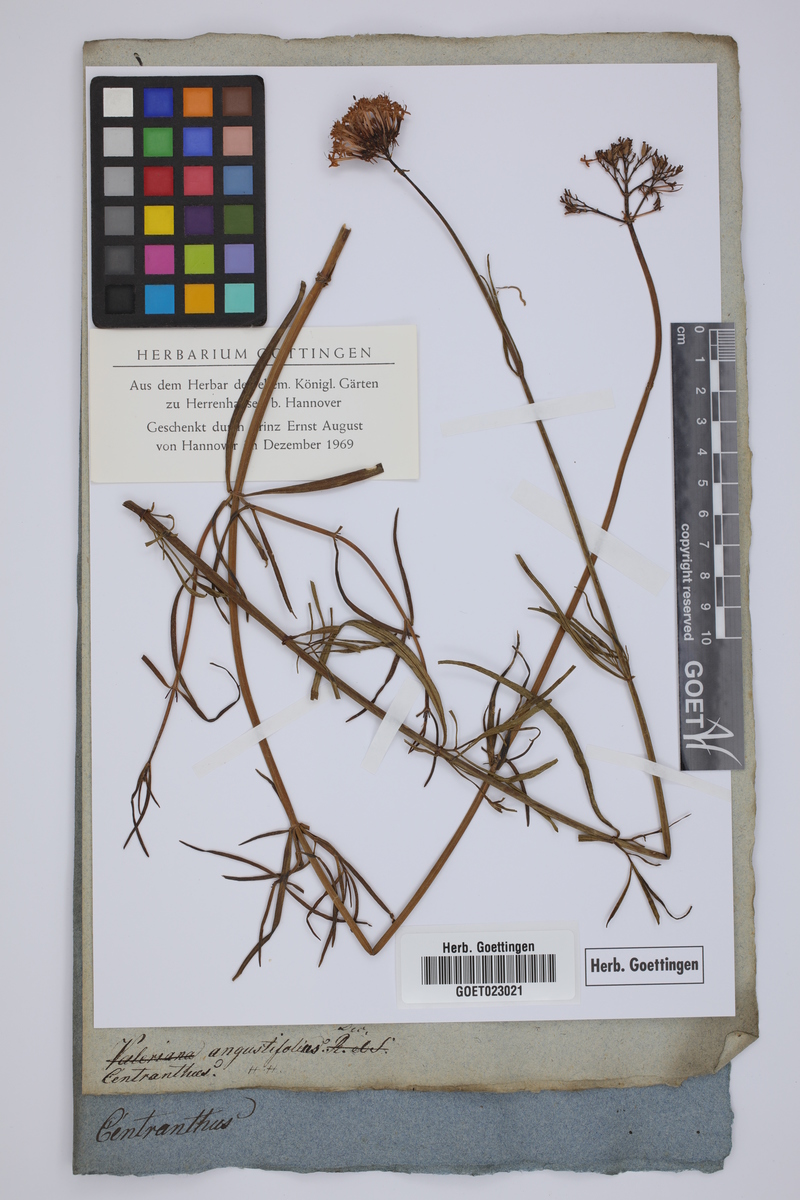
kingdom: Plantae
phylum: Tracheophyta
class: Magnoliopsida
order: Dipsacales
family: Caprifoliaceae
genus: Centranthus
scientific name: Centranthus angustifolius
